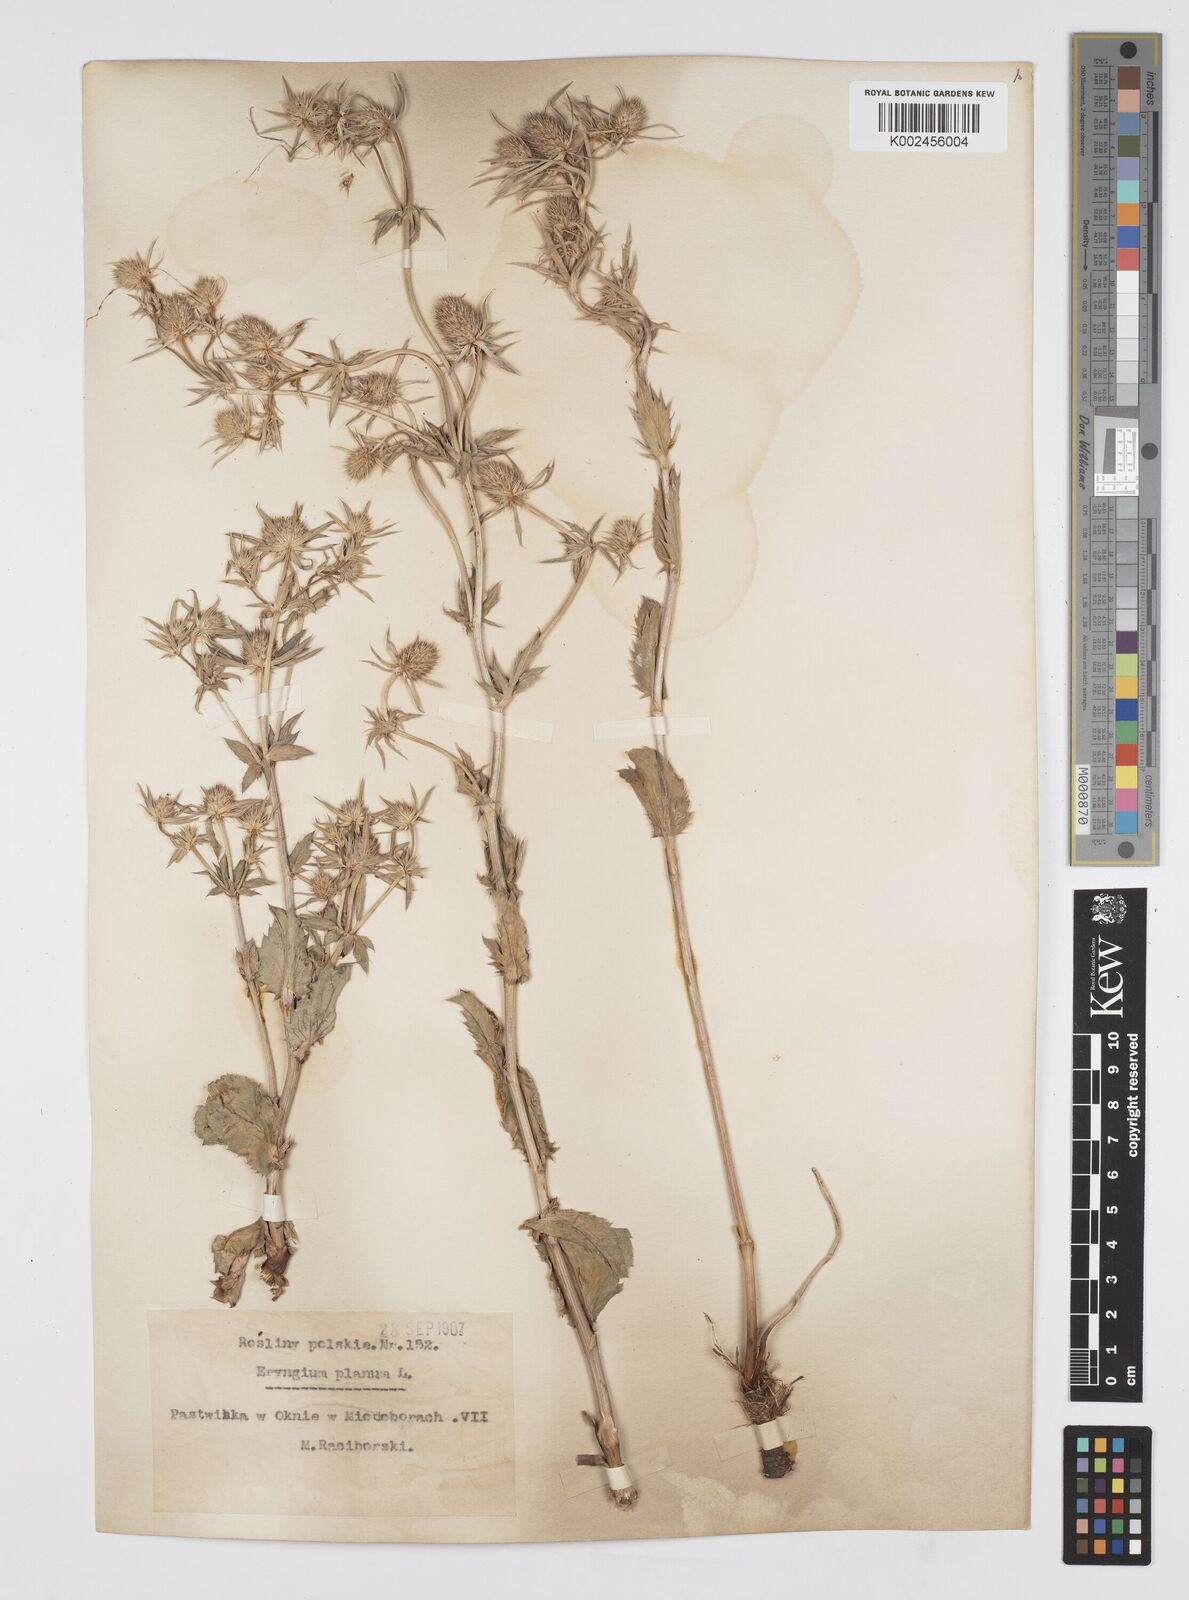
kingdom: Plantae
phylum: Tracheophyta
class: Magnoliopsida
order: Apiales
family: Apiaceae
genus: Eryngium
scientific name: Eryngium planum
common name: Blue eryngo
